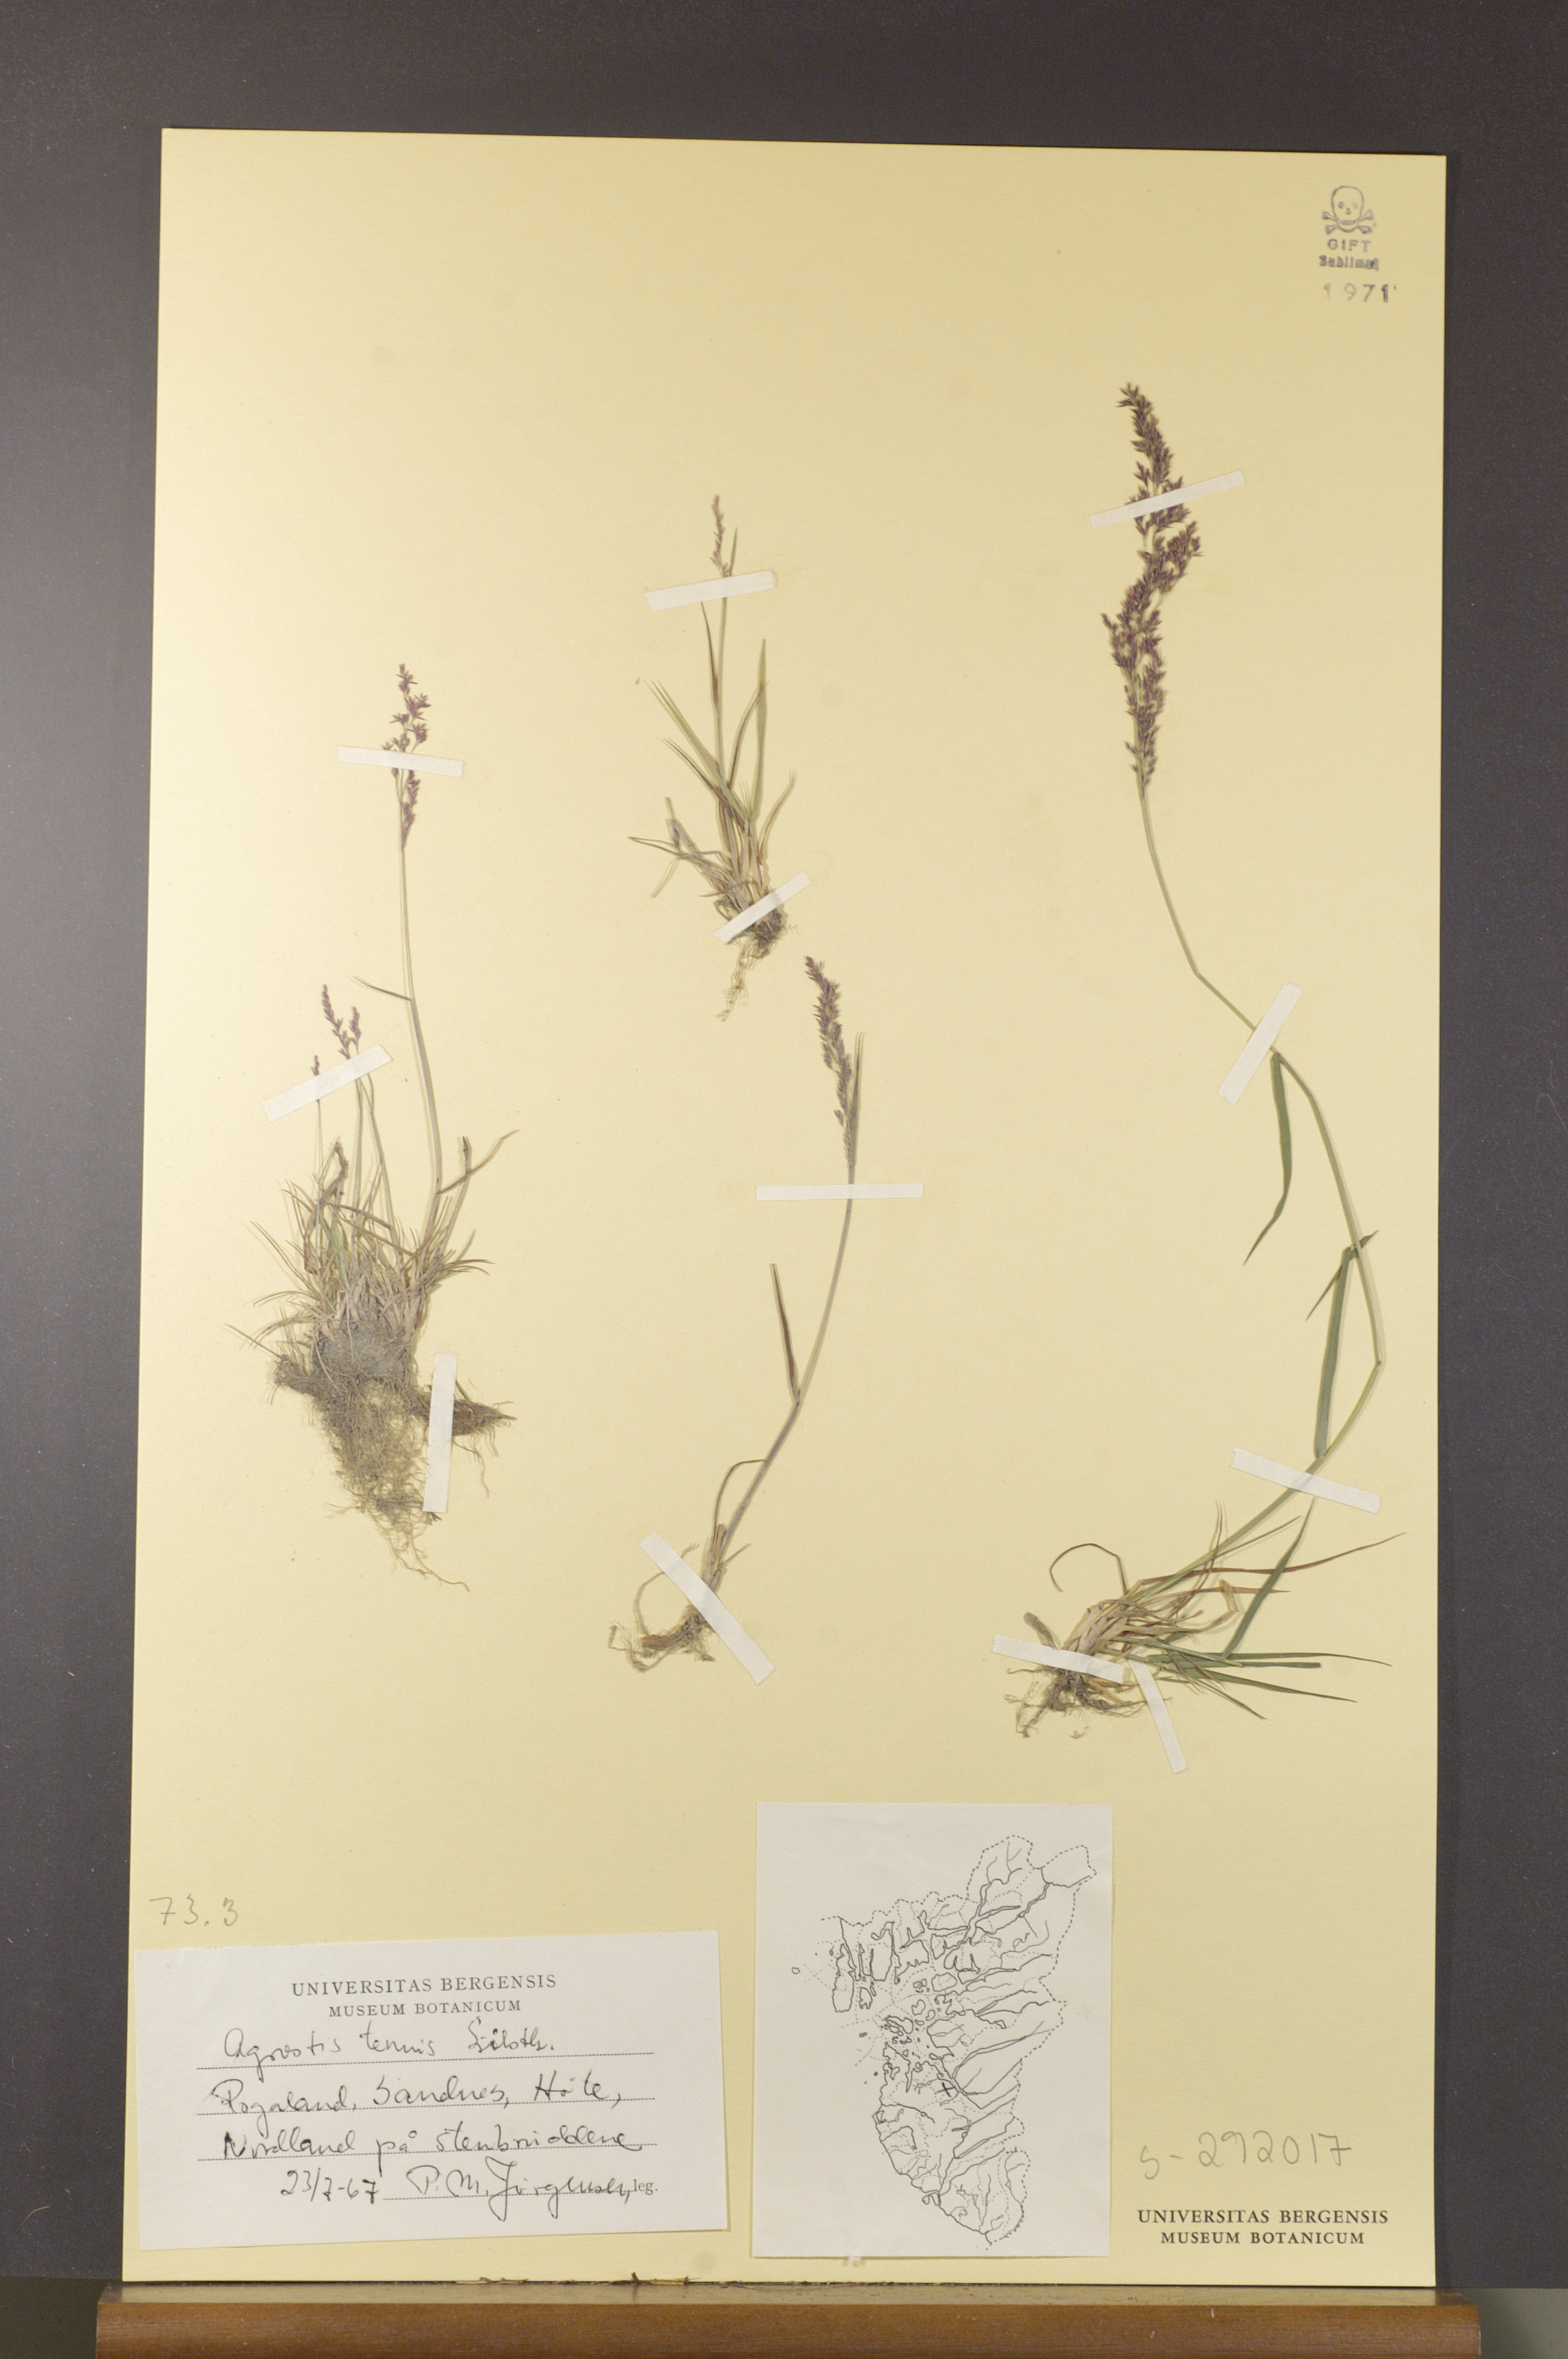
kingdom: Plantae
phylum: Tracheophyta
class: Liliopsida
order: Poales
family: Poaceae
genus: Agrostis
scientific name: Agrostis capillaris
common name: Colonial bentgrass
